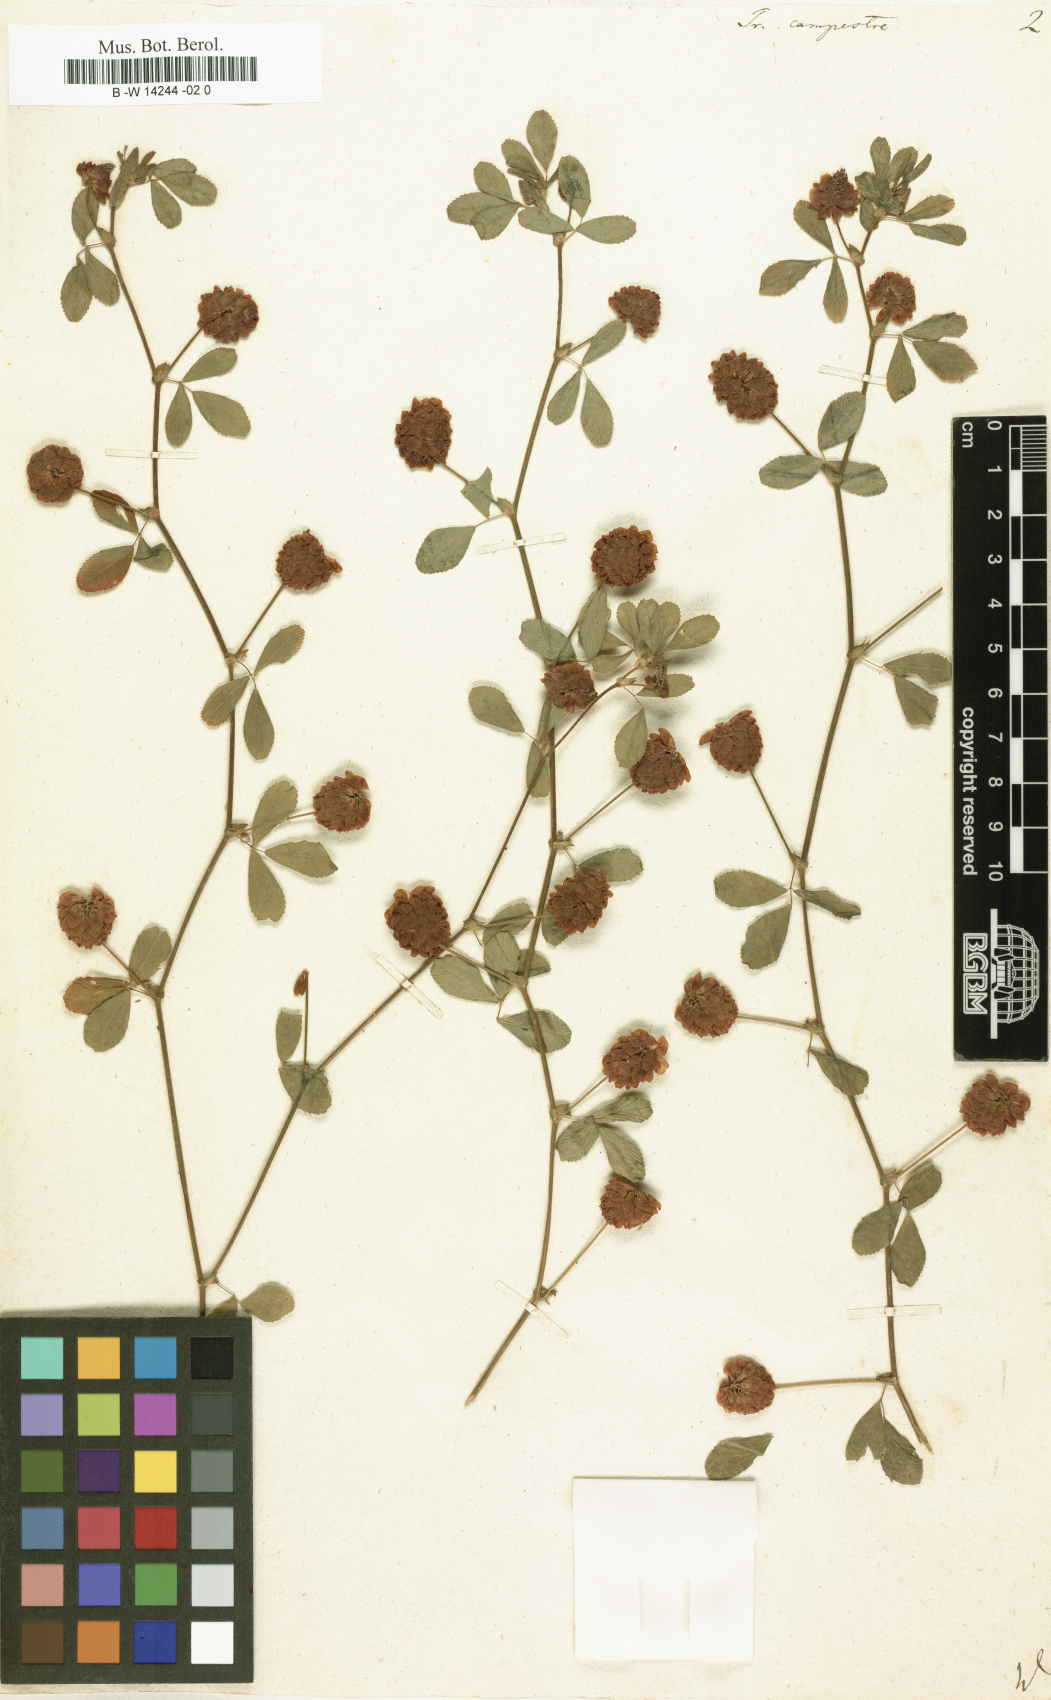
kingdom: Plantae
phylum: Tracheophyta
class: Magnoliopsida
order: Fabales
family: Fabaceae
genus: Trifolium
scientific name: Trifolium campestre
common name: Field clover
